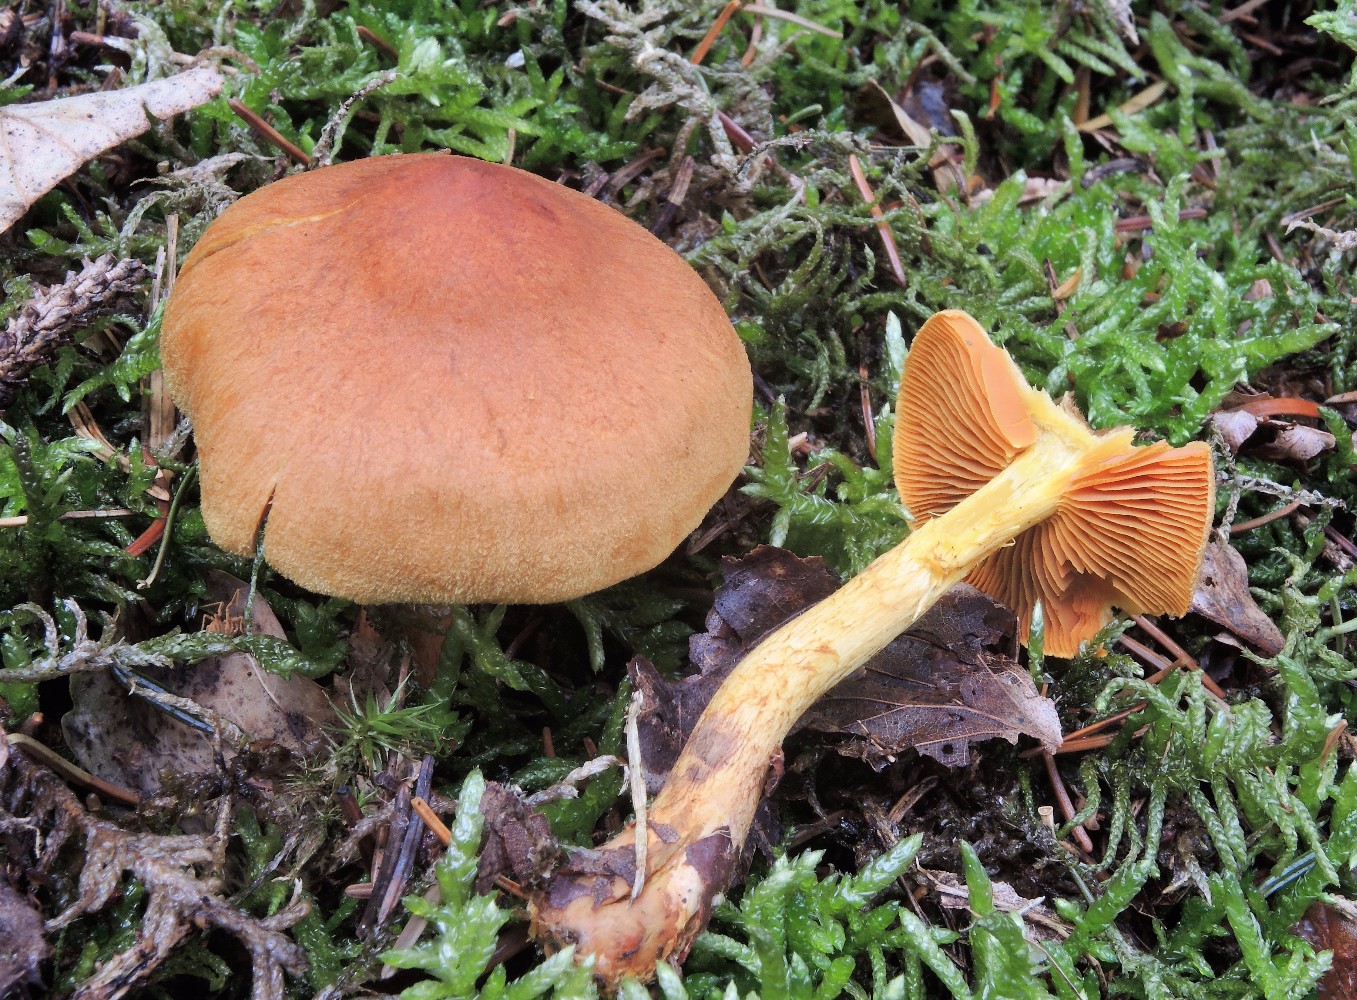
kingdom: Fungi
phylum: Basidiomycota
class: Agaricomycetes
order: Agaricales
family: Cortinariaceae
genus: Cortinarius
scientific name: Cortinarius malicorius
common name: grønkødet slørhat
